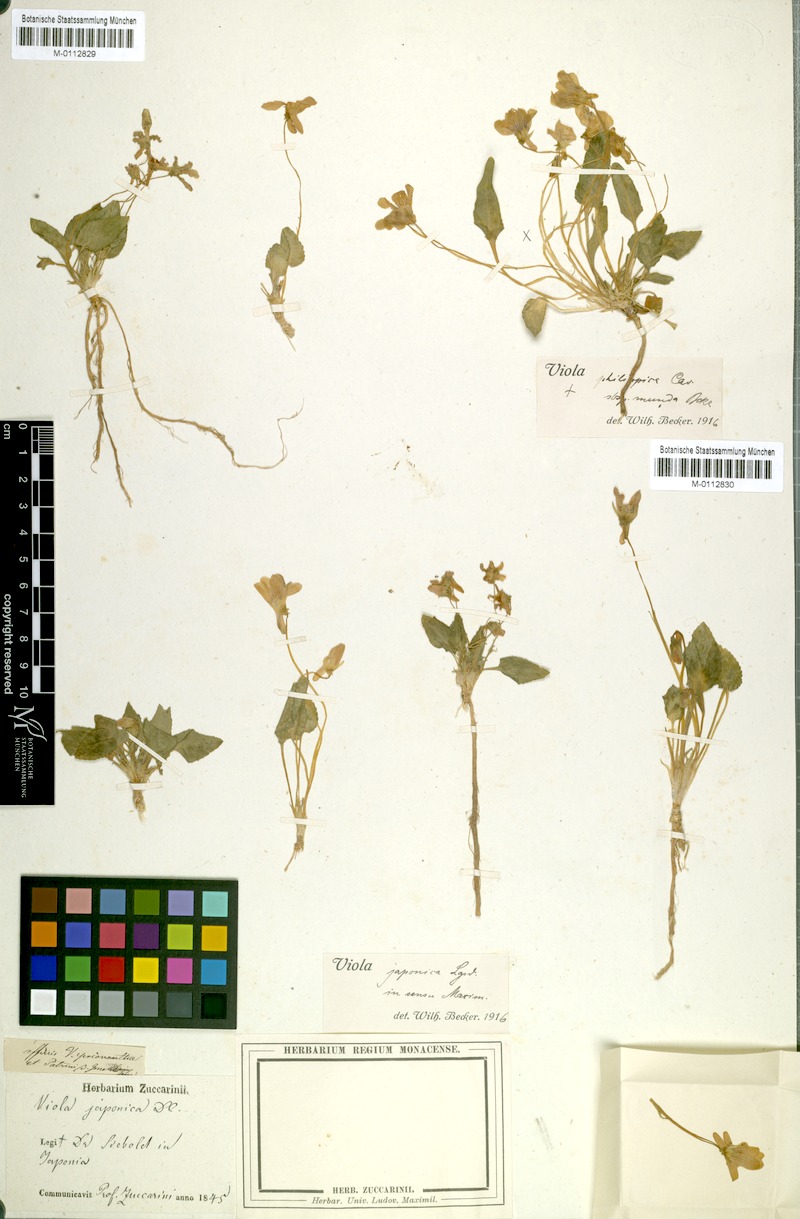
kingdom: Plantae
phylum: Tracheophyta
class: Magnoliopsida
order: Malpighiales
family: Violaceae
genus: Viola
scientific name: Viola japonica
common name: Japanese violet
